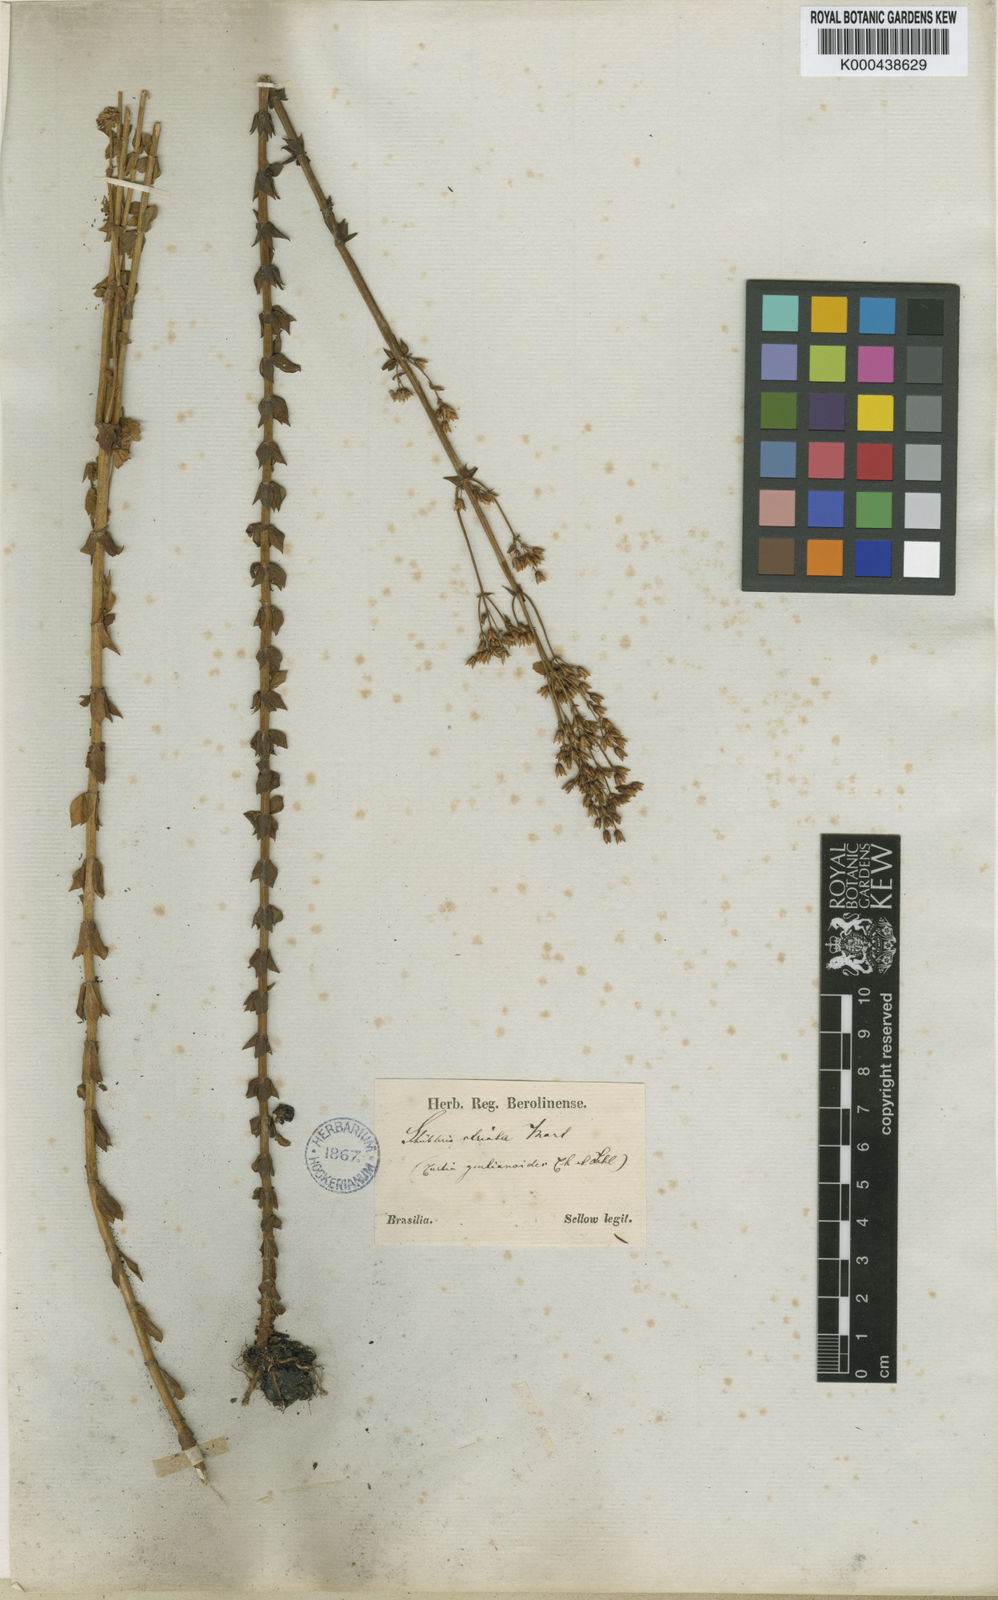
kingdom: Plantae
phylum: Tracheophyta
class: Magnoliopsida
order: Gentianales
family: Gentianaceae
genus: Curtia
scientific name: Curtia verticillaris
